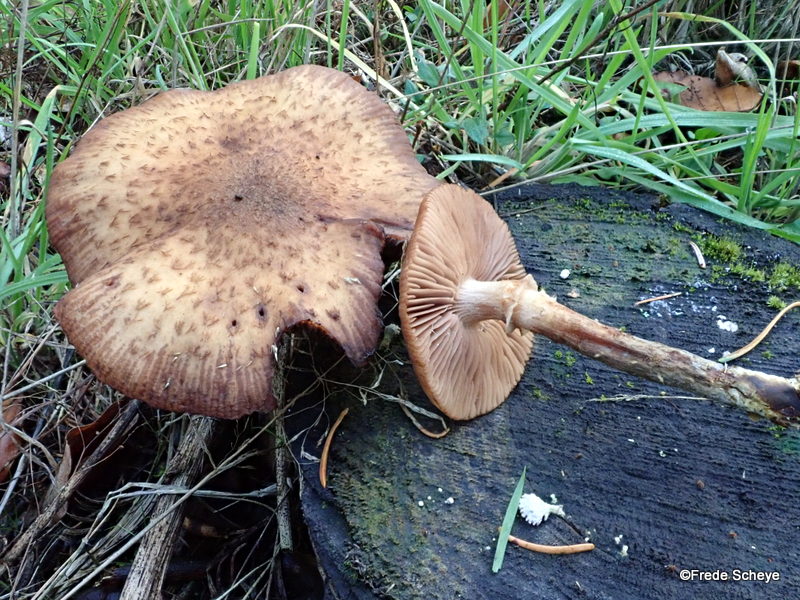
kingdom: Fungi
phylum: Basidiomycota
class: Agaricomycetes
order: Agaricales
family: Physalacriaceae
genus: Armillaria
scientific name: Armillaria ostoyae
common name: mørk honningsvamp
